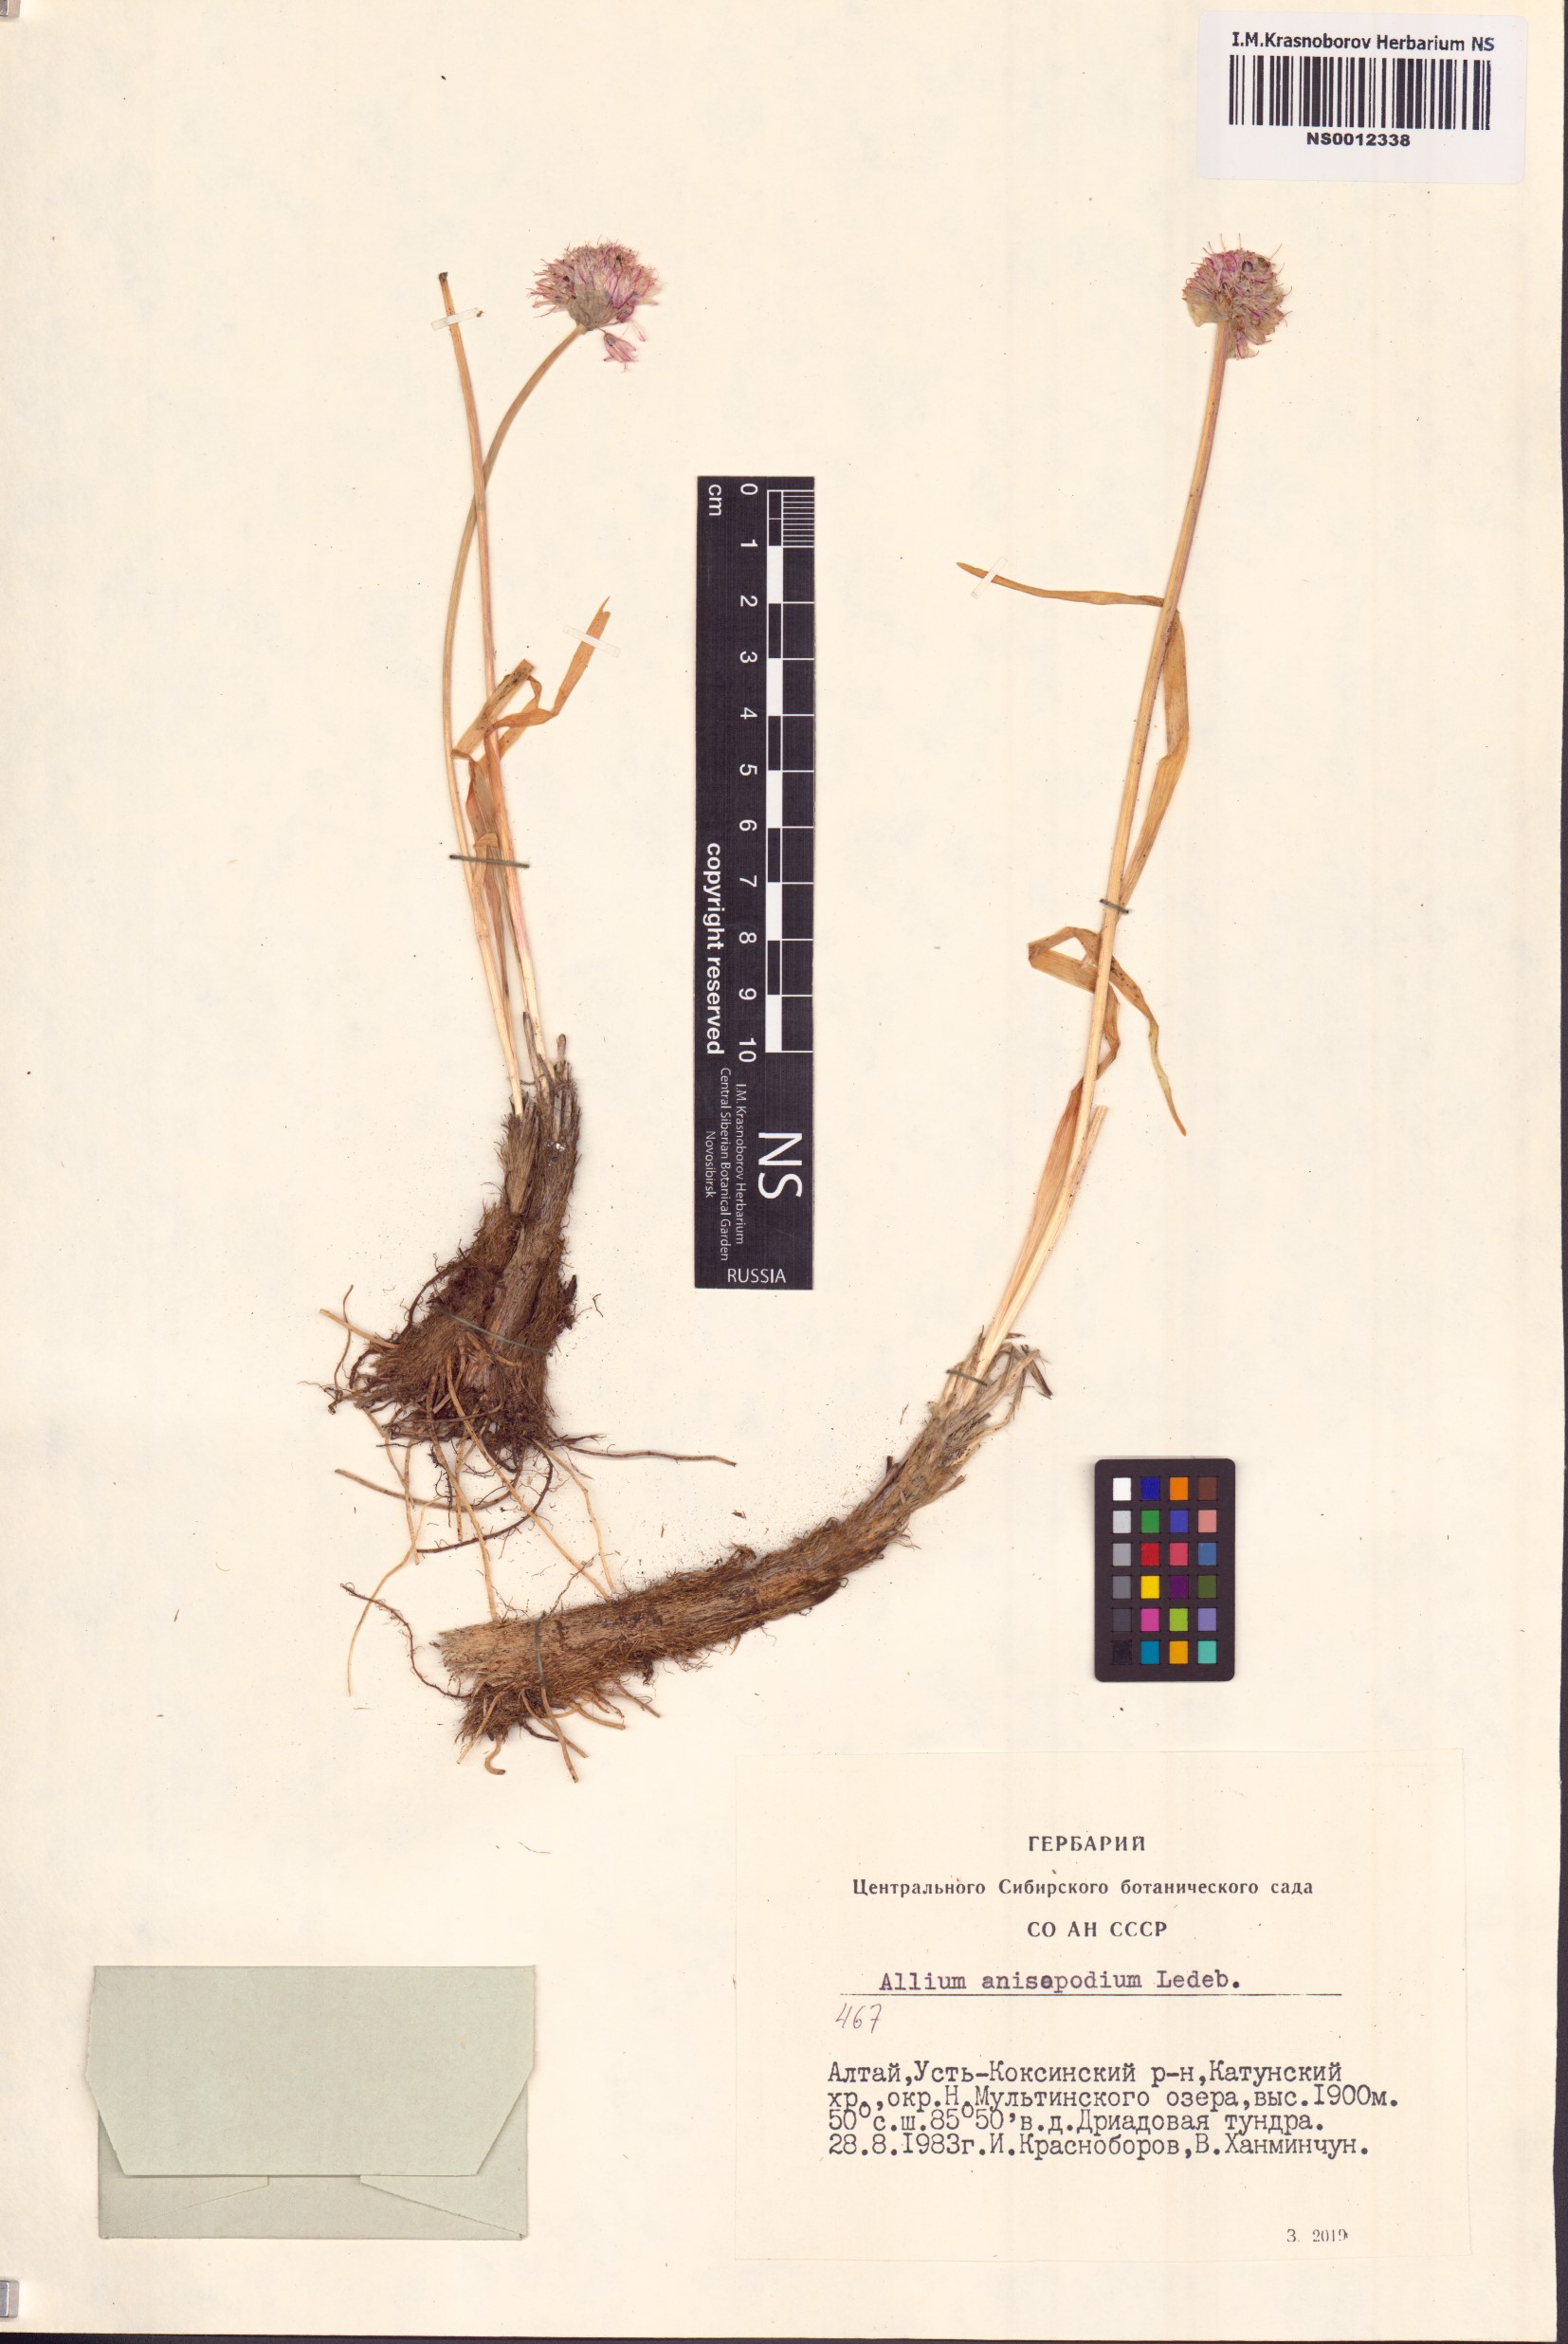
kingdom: Plantae
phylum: Tracheophyta
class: Liliopsida
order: Asparagales
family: Amaryllidaceae
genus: Allium
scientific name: Allium anisopodium
